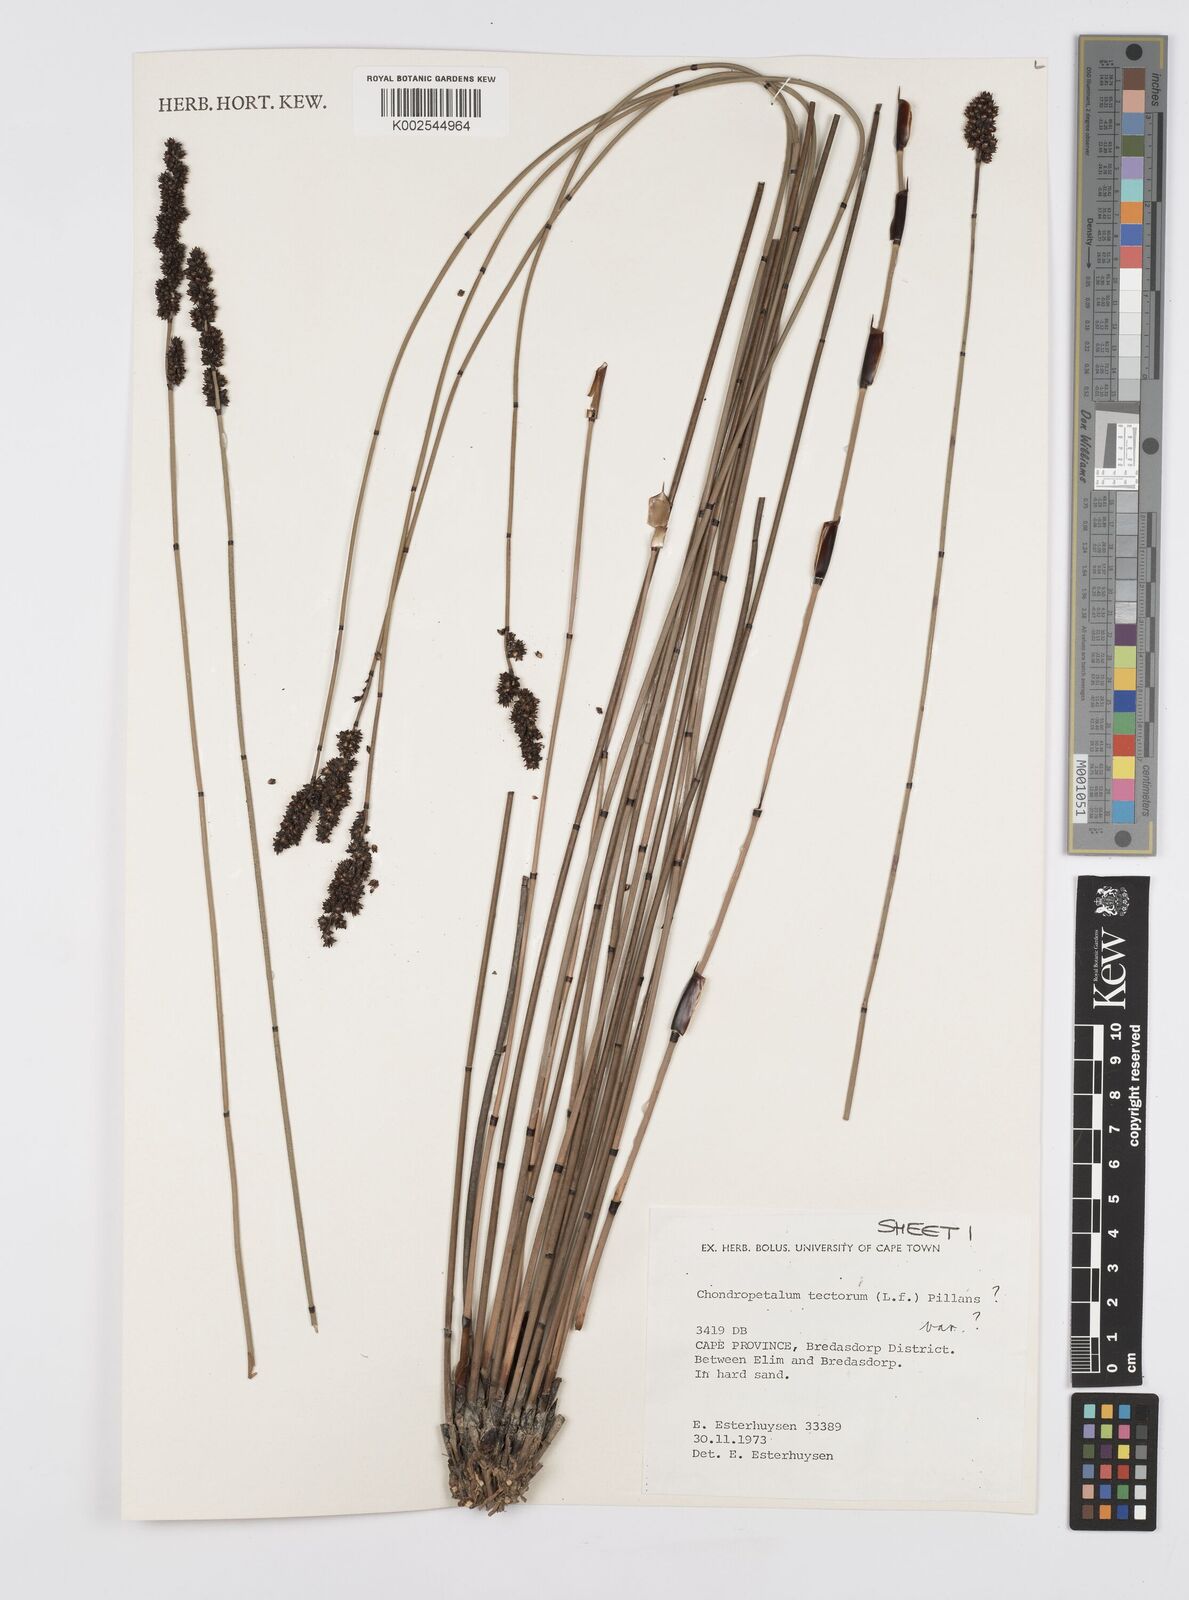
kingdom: Plantae
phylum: Tracheophyta
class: Liliopsida
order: Poales
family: Restionaceae
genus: Elegia
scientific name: Elegia tectorum
